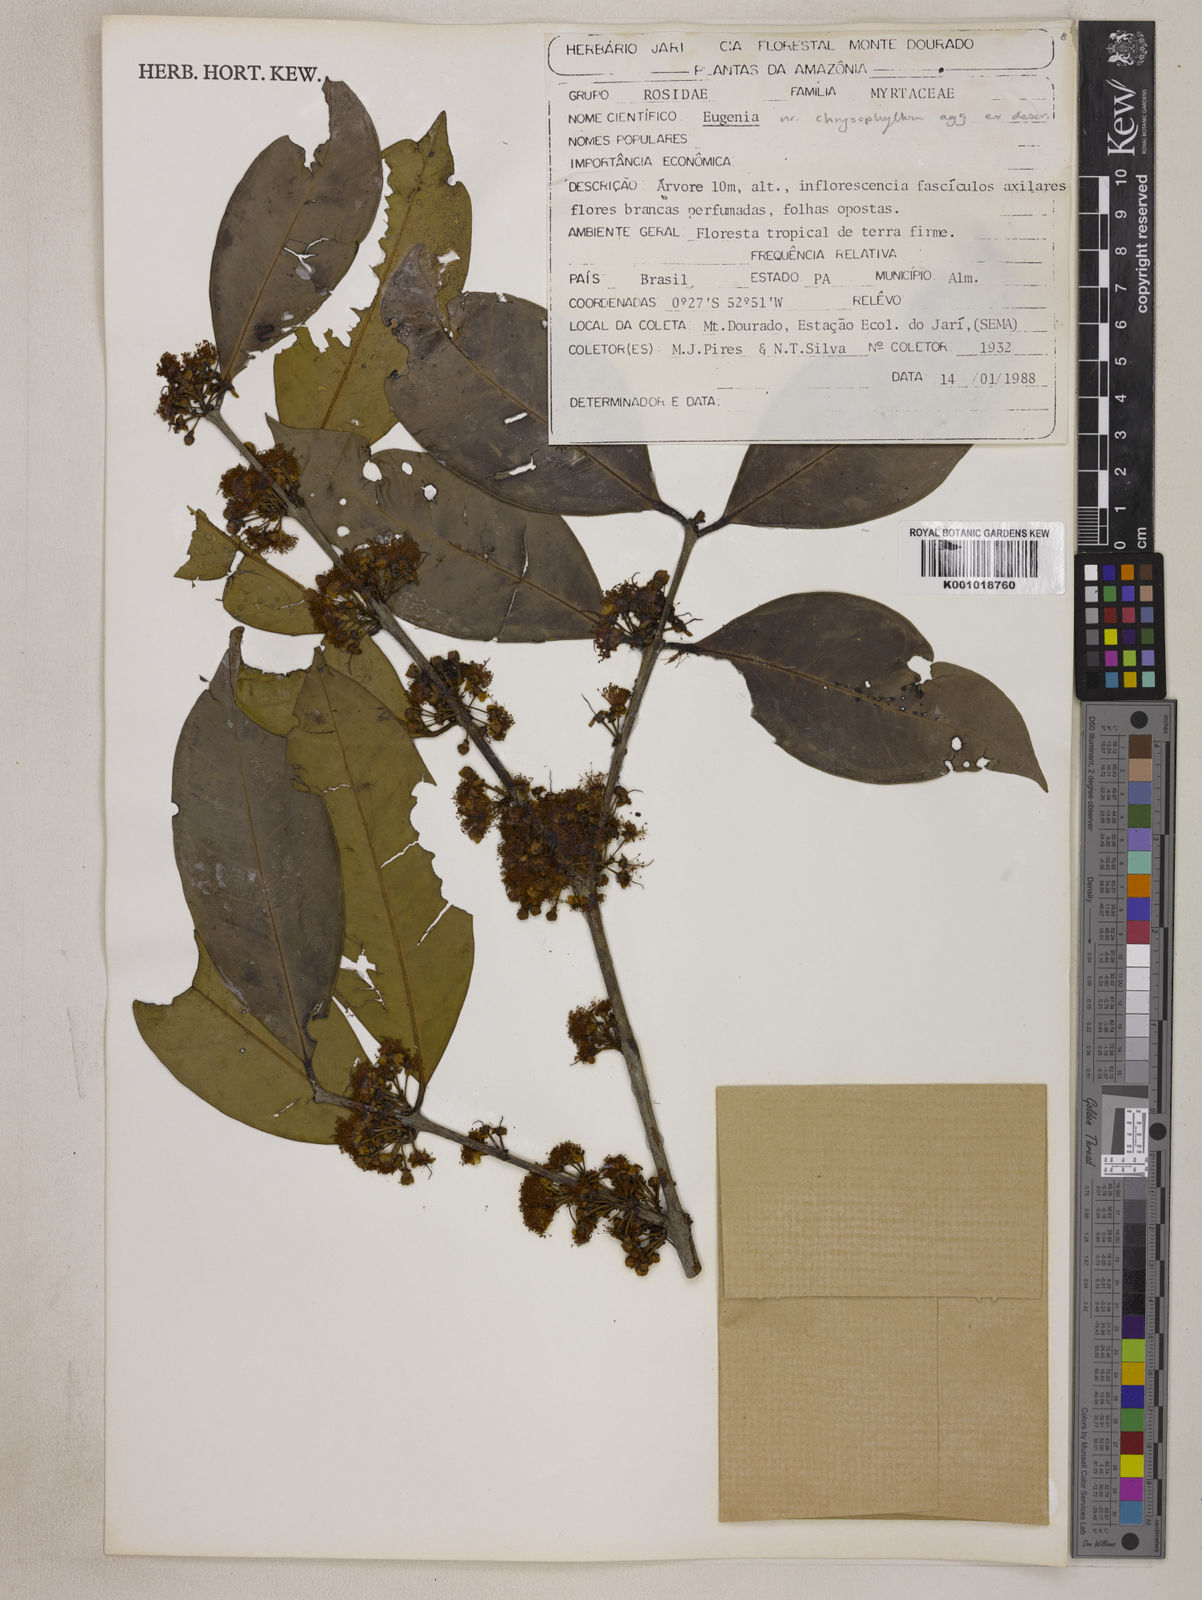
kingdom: Plantae
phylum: Tracheophyta
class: Magnoliopsida
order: Myrtales
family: Myrtaceae
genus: Eugenia
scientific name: Eugenia chrysophyllum
